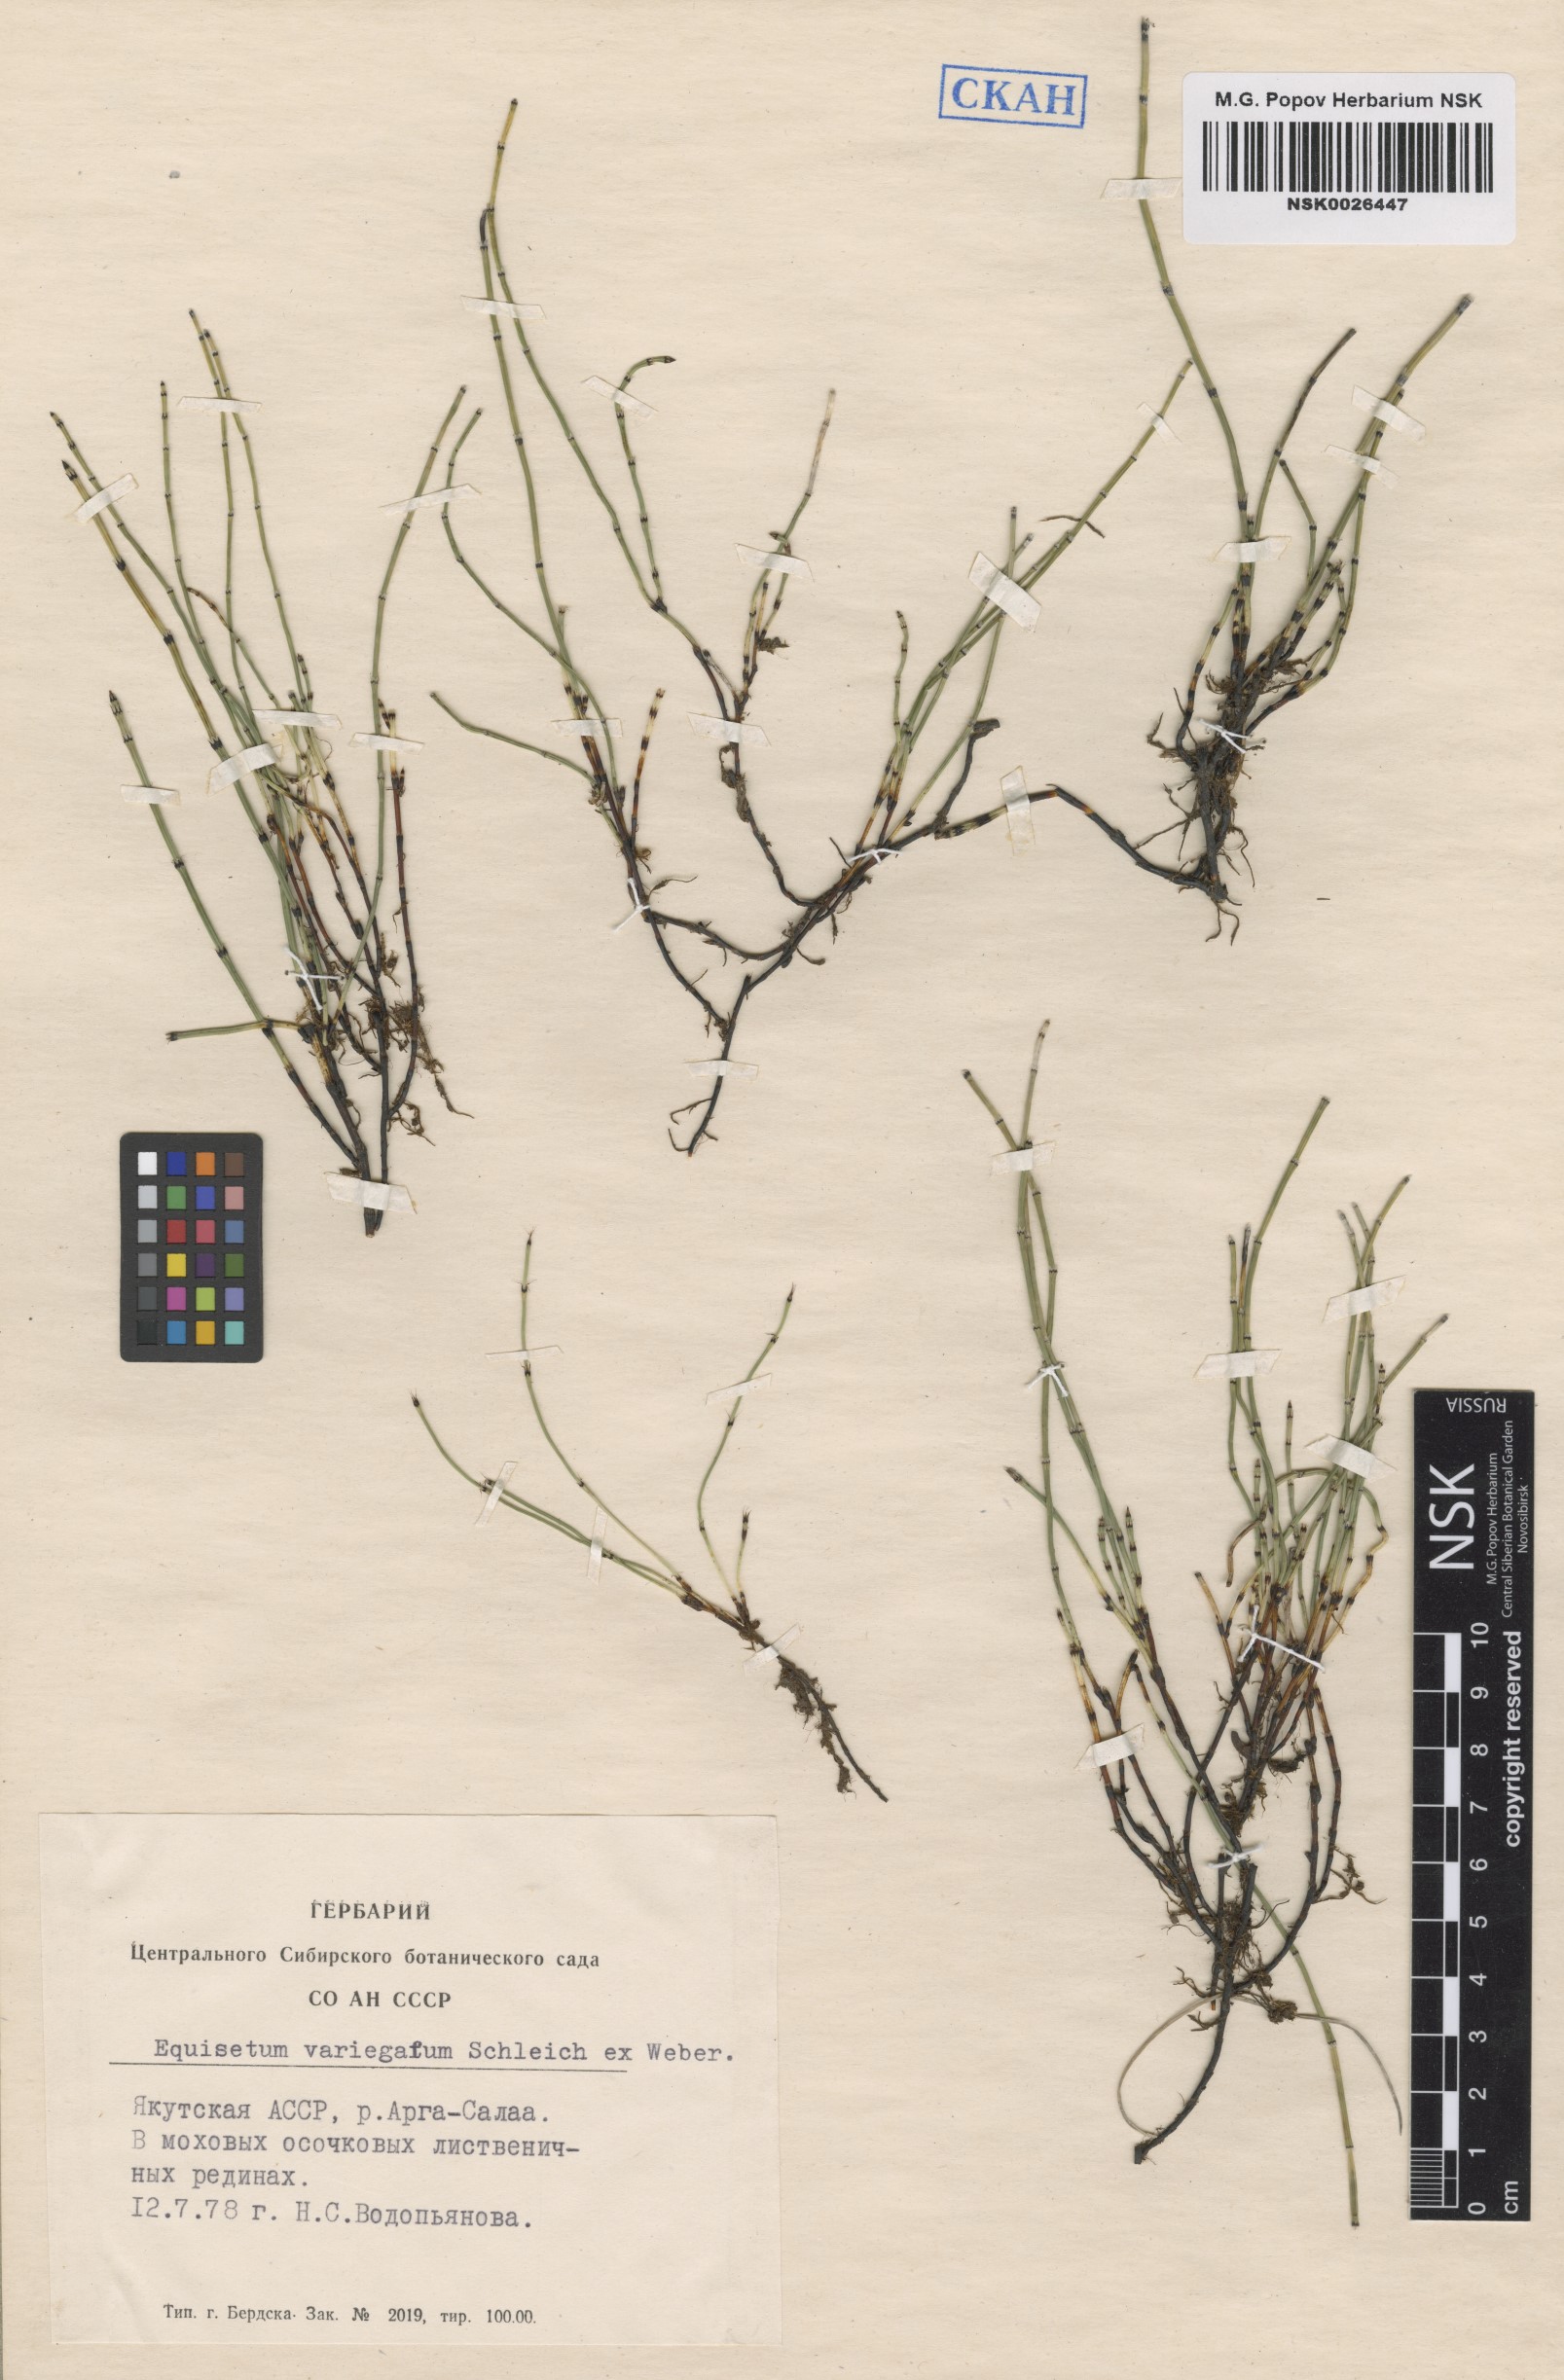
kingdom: Plantae
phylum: Tracheophyta
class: Polypodiopsida
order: Equisetales
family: Equisetaceae
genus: Equisetum
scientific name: Equisetum variegatum
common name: Variegated horsetail
